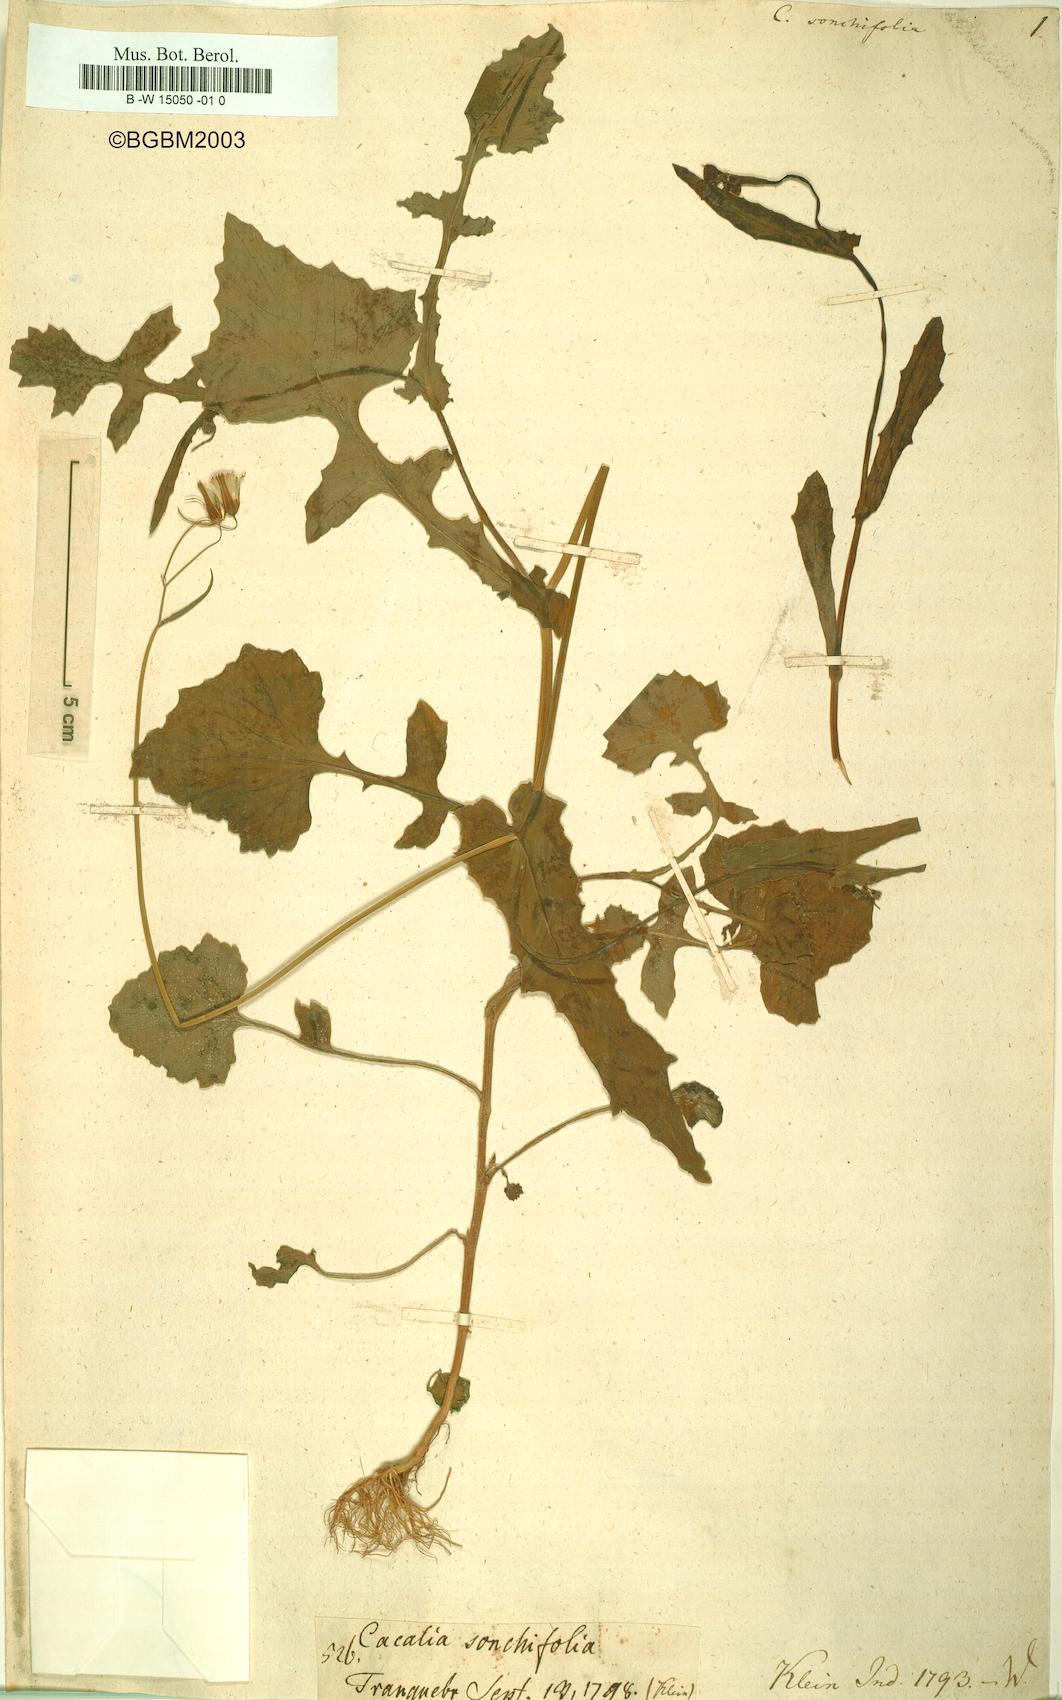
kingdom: Plantae
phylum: Tracheophyta
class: Magnoliopsida
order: Asterales
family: Asteraceae
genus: Adenostyles
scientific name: Adenostyles Cacalia sonchifolia
